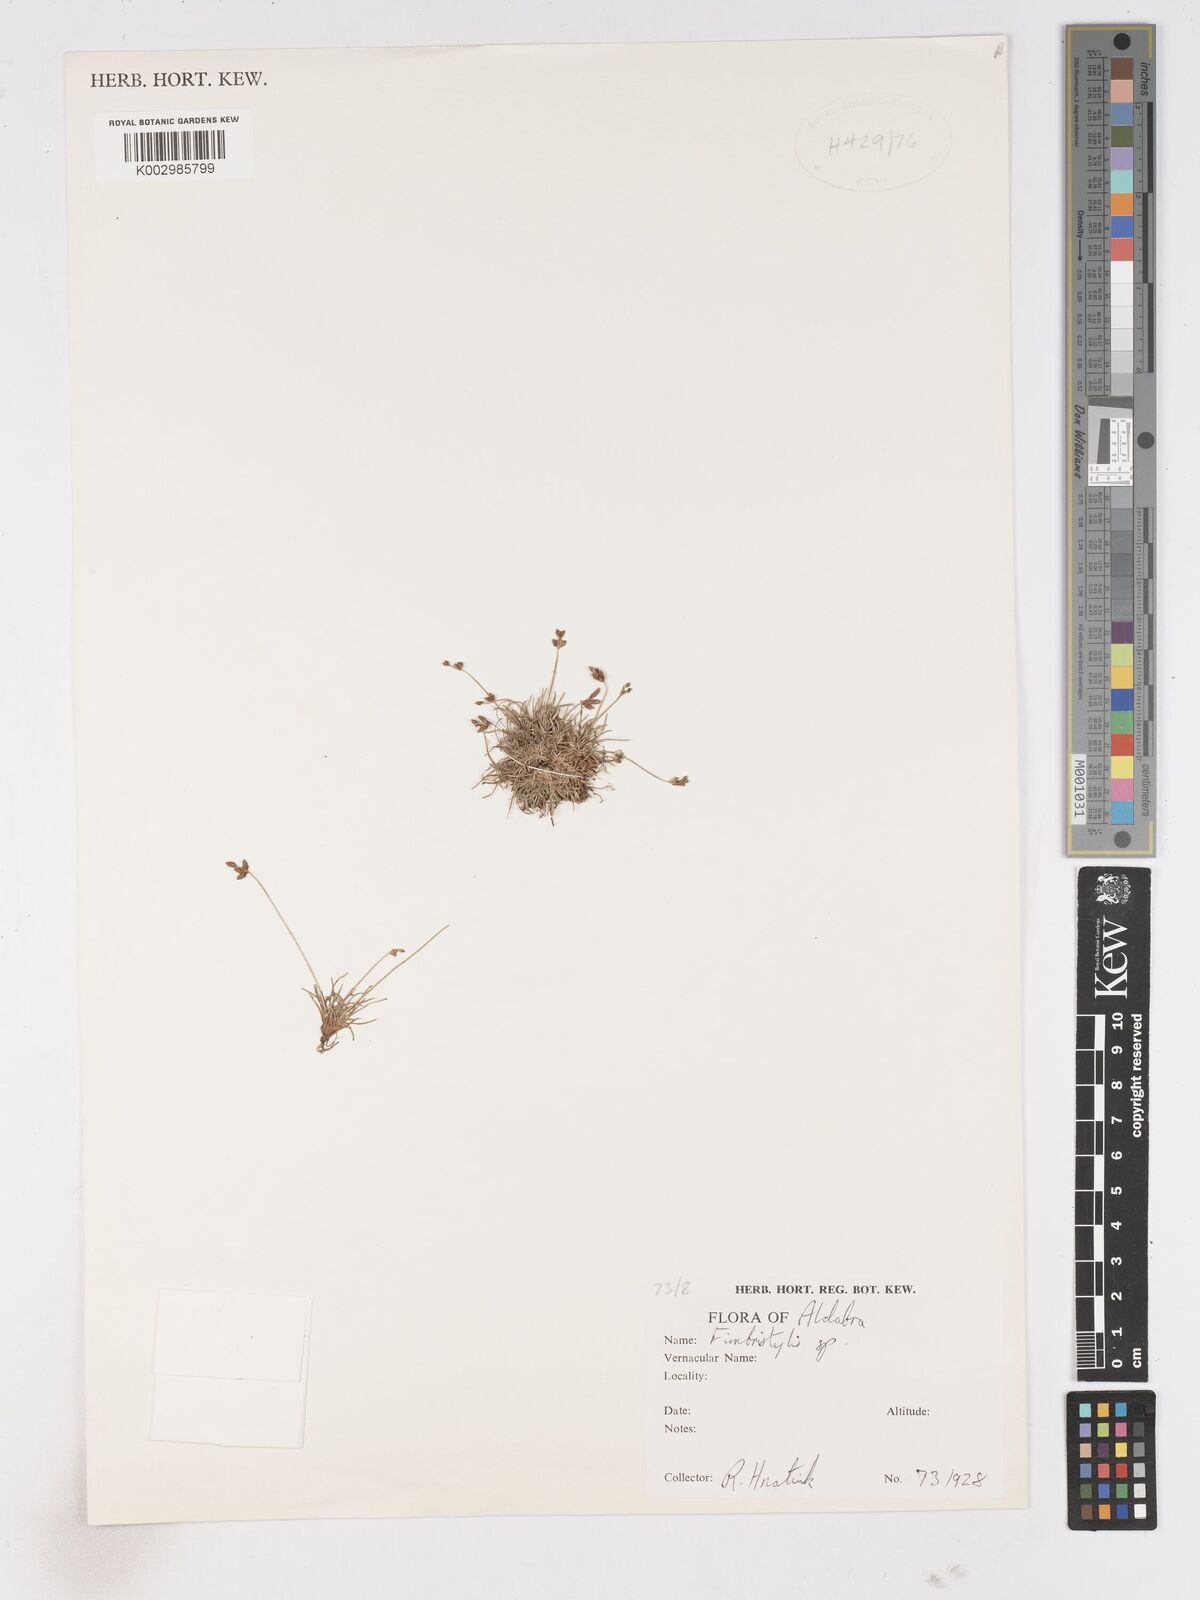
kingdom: Plantae
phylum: Tracheophyta
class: Liliopsida
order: Poales
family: Cyperaceae
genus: Fimbristylis
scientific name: Fimbristylis
